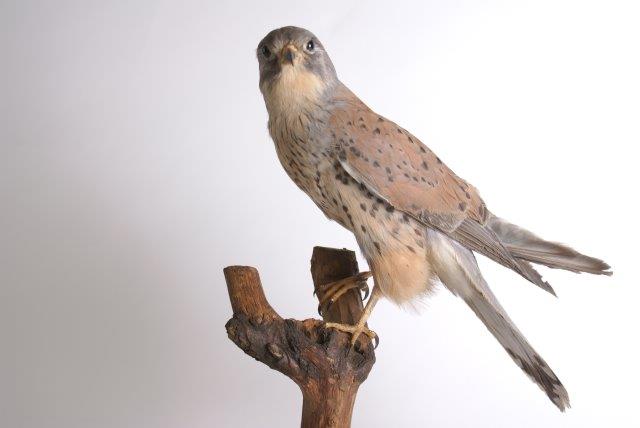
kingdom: Animalia
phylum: Chordata
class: Aves
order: Falconiformes
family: Falconidae
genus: Falco
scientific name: Falco tinnunculus
